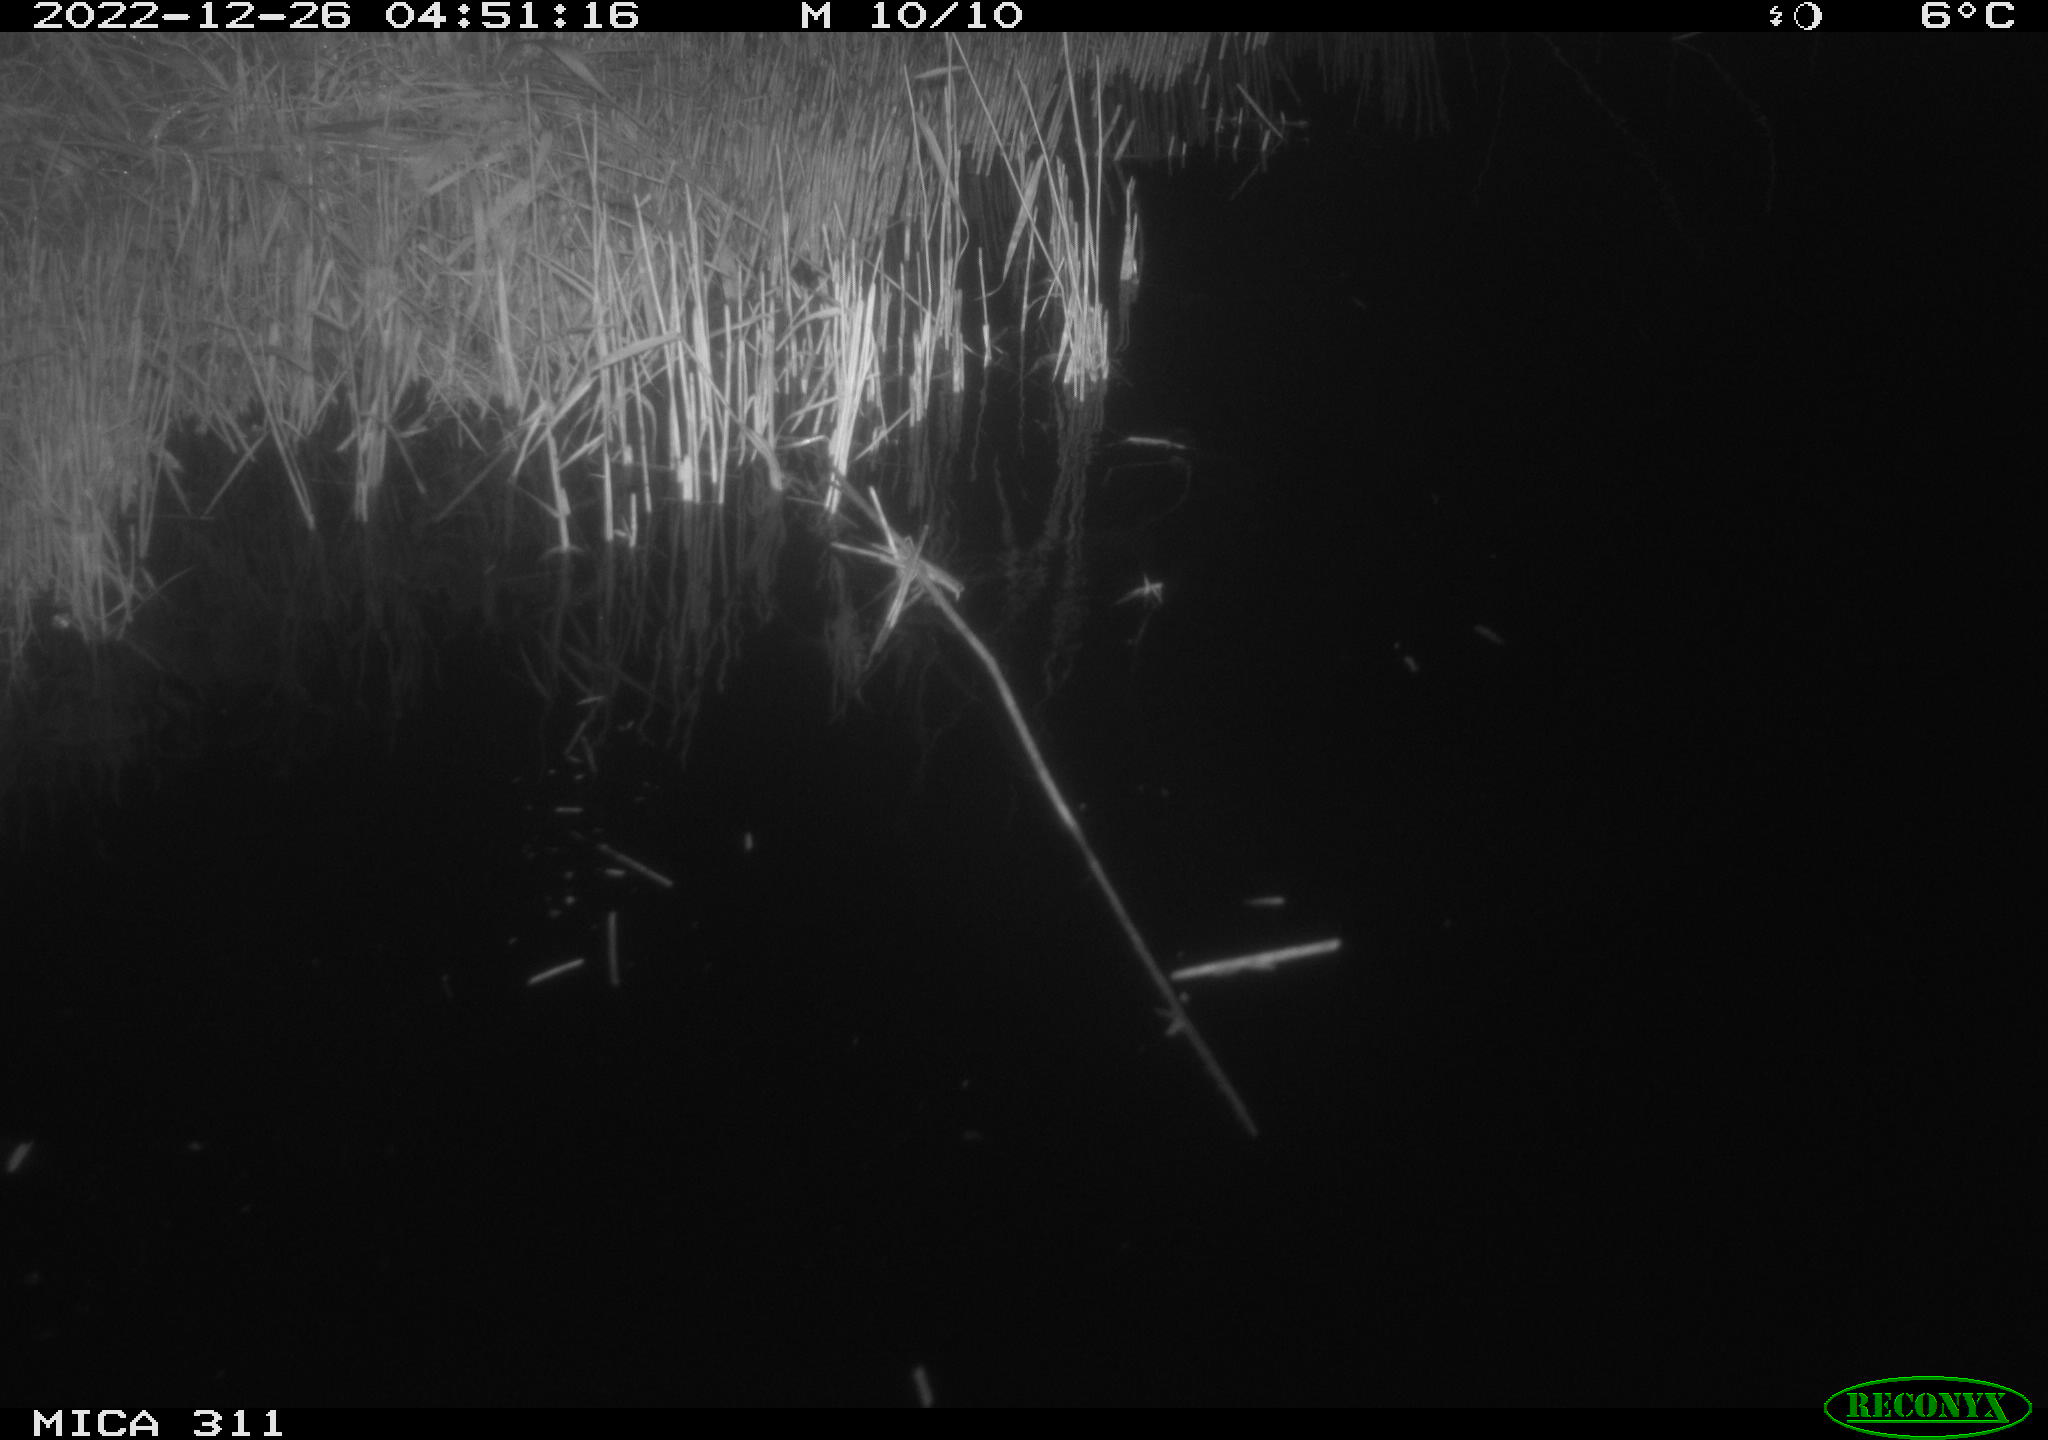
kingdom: Animalia
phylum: Chordata
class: Aves
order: Gruiformes
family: Rallidae
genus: Gallinula
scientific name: Gallinula chloropus
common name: Common moorhen
